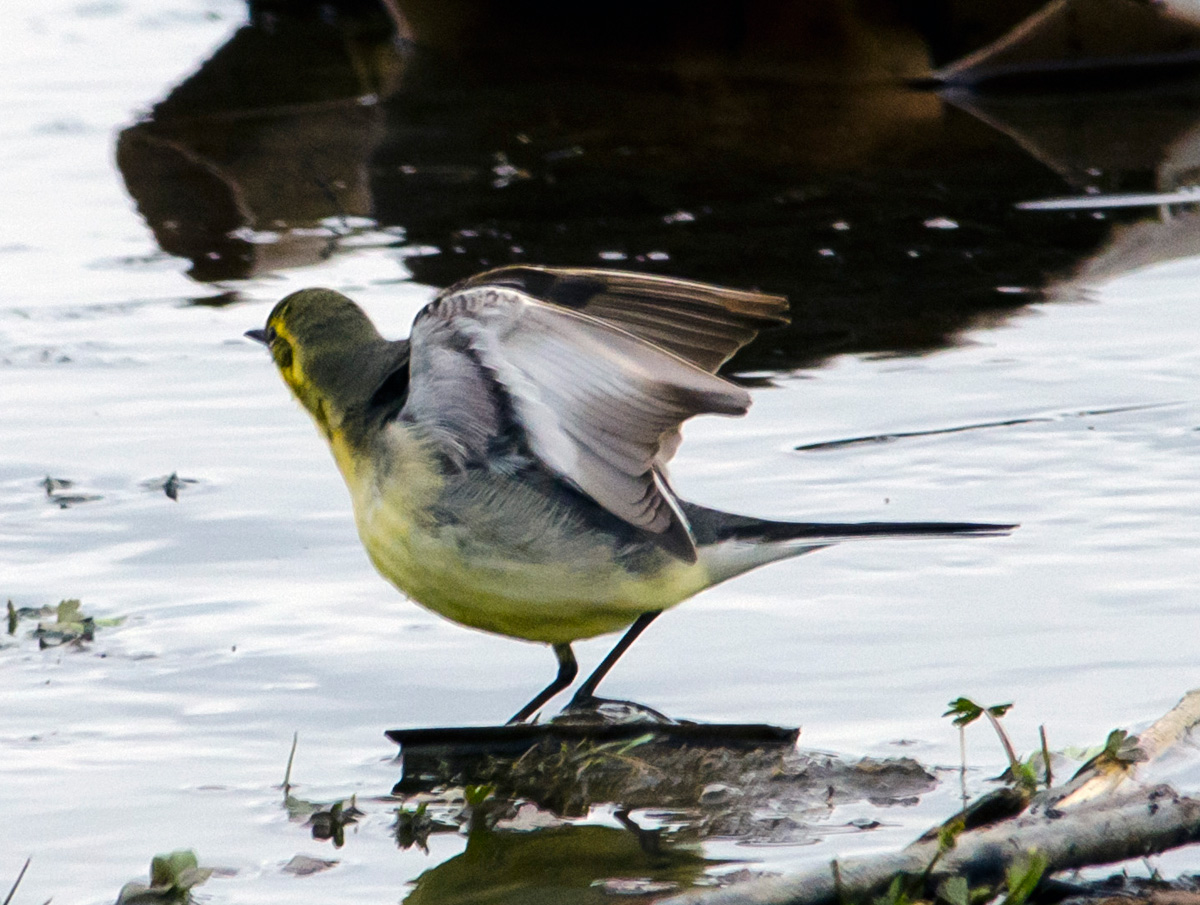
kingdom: Animalia
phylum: Chordata
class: Aves
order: Passeriformes
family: Motacillidae
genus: Motacilla
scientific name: Motacilla citreola
